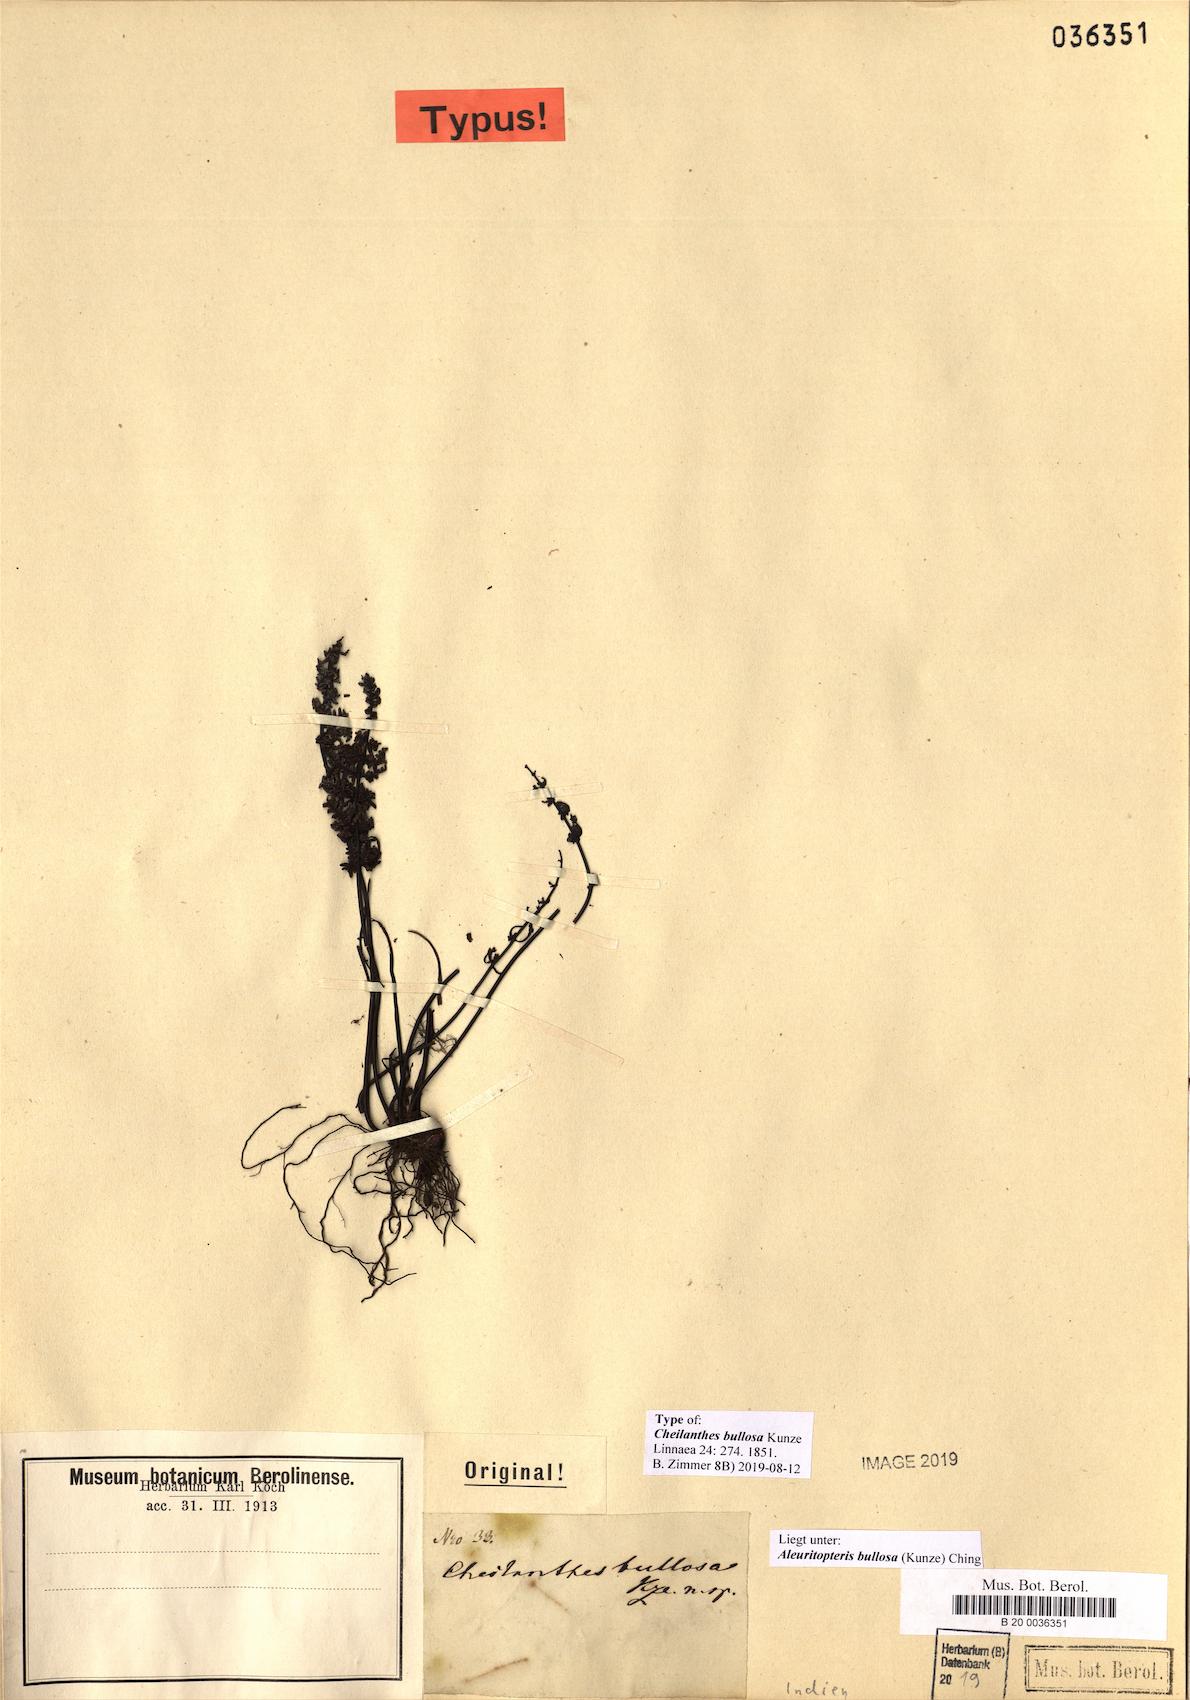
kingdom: Plantae
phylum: Tracheophyta
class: Polypodiopsida
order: Polypodiales
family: Pteridaceae
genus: Aleuritopteris
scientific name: Aleuritopteris bullosa
